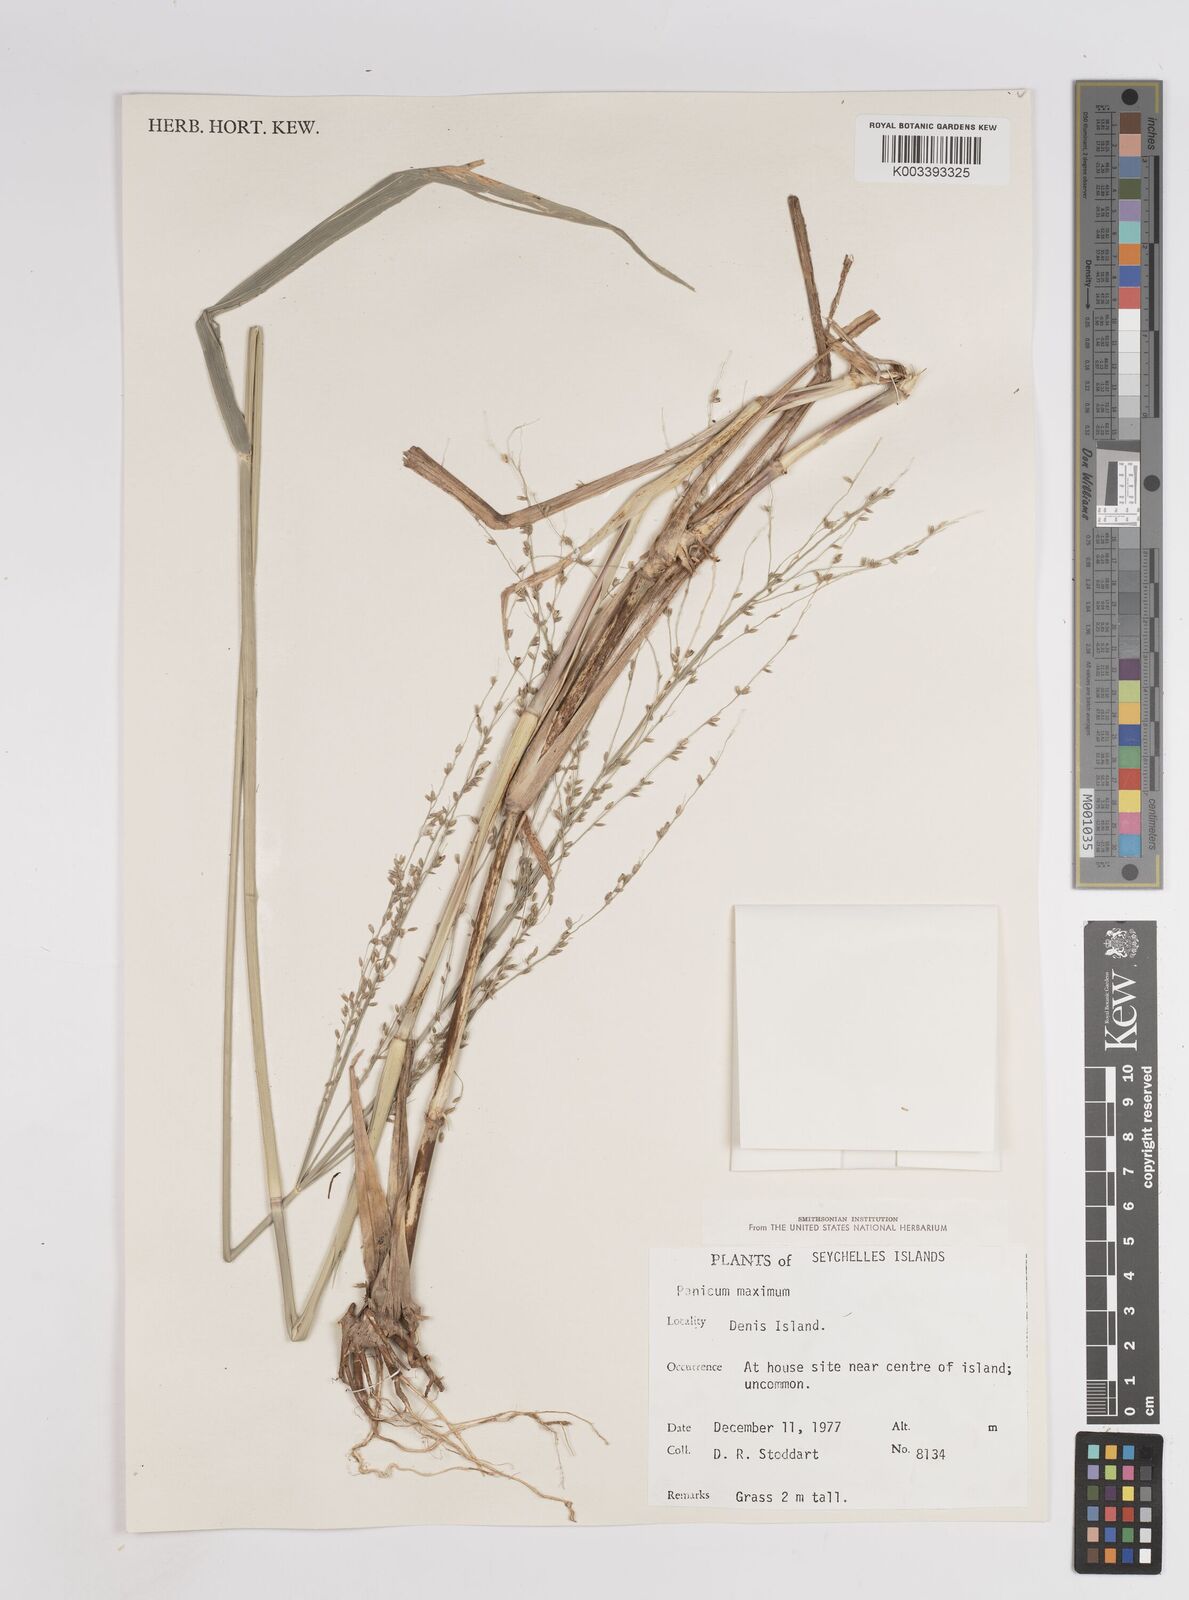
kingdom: Plantae
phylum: Tracheophyta
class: Liliopsida
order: Poales
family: Poaceae
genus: Megathyrsus
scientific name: Megathyrsus maximus
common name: Guineagrass
